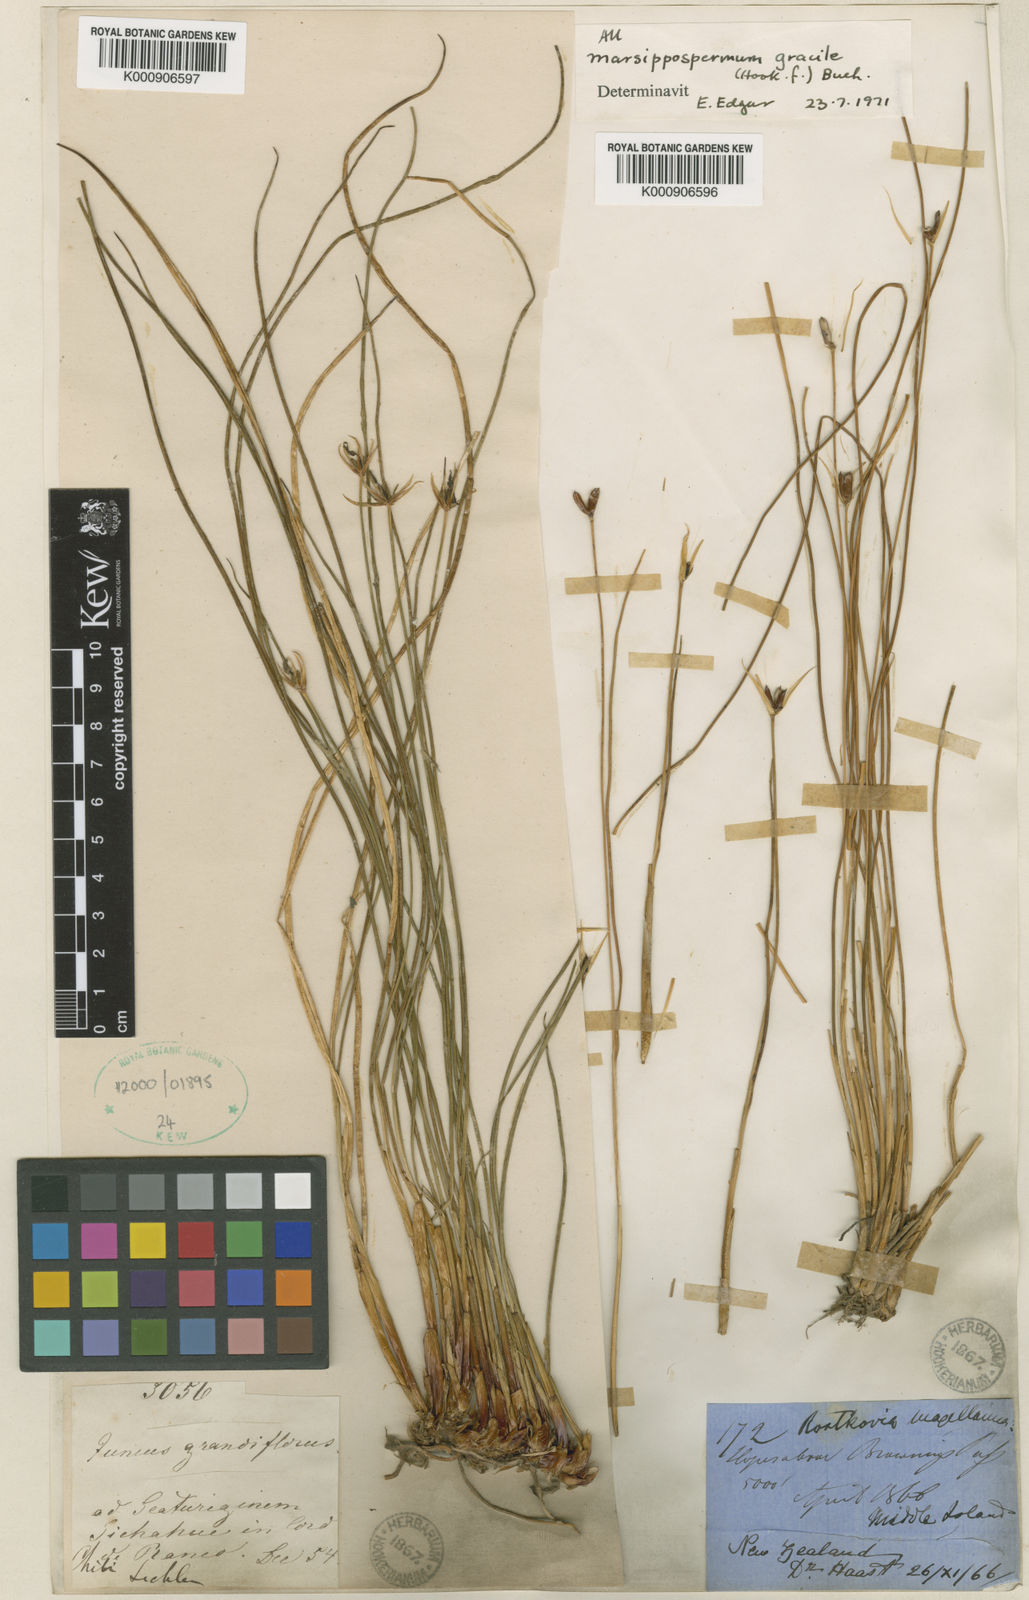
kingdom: Plantae
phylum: Tracheophyta
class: Liliopsida
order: Poales
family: Juncaceae
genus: Marsippospermum
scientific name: Marsippospermum gracile
